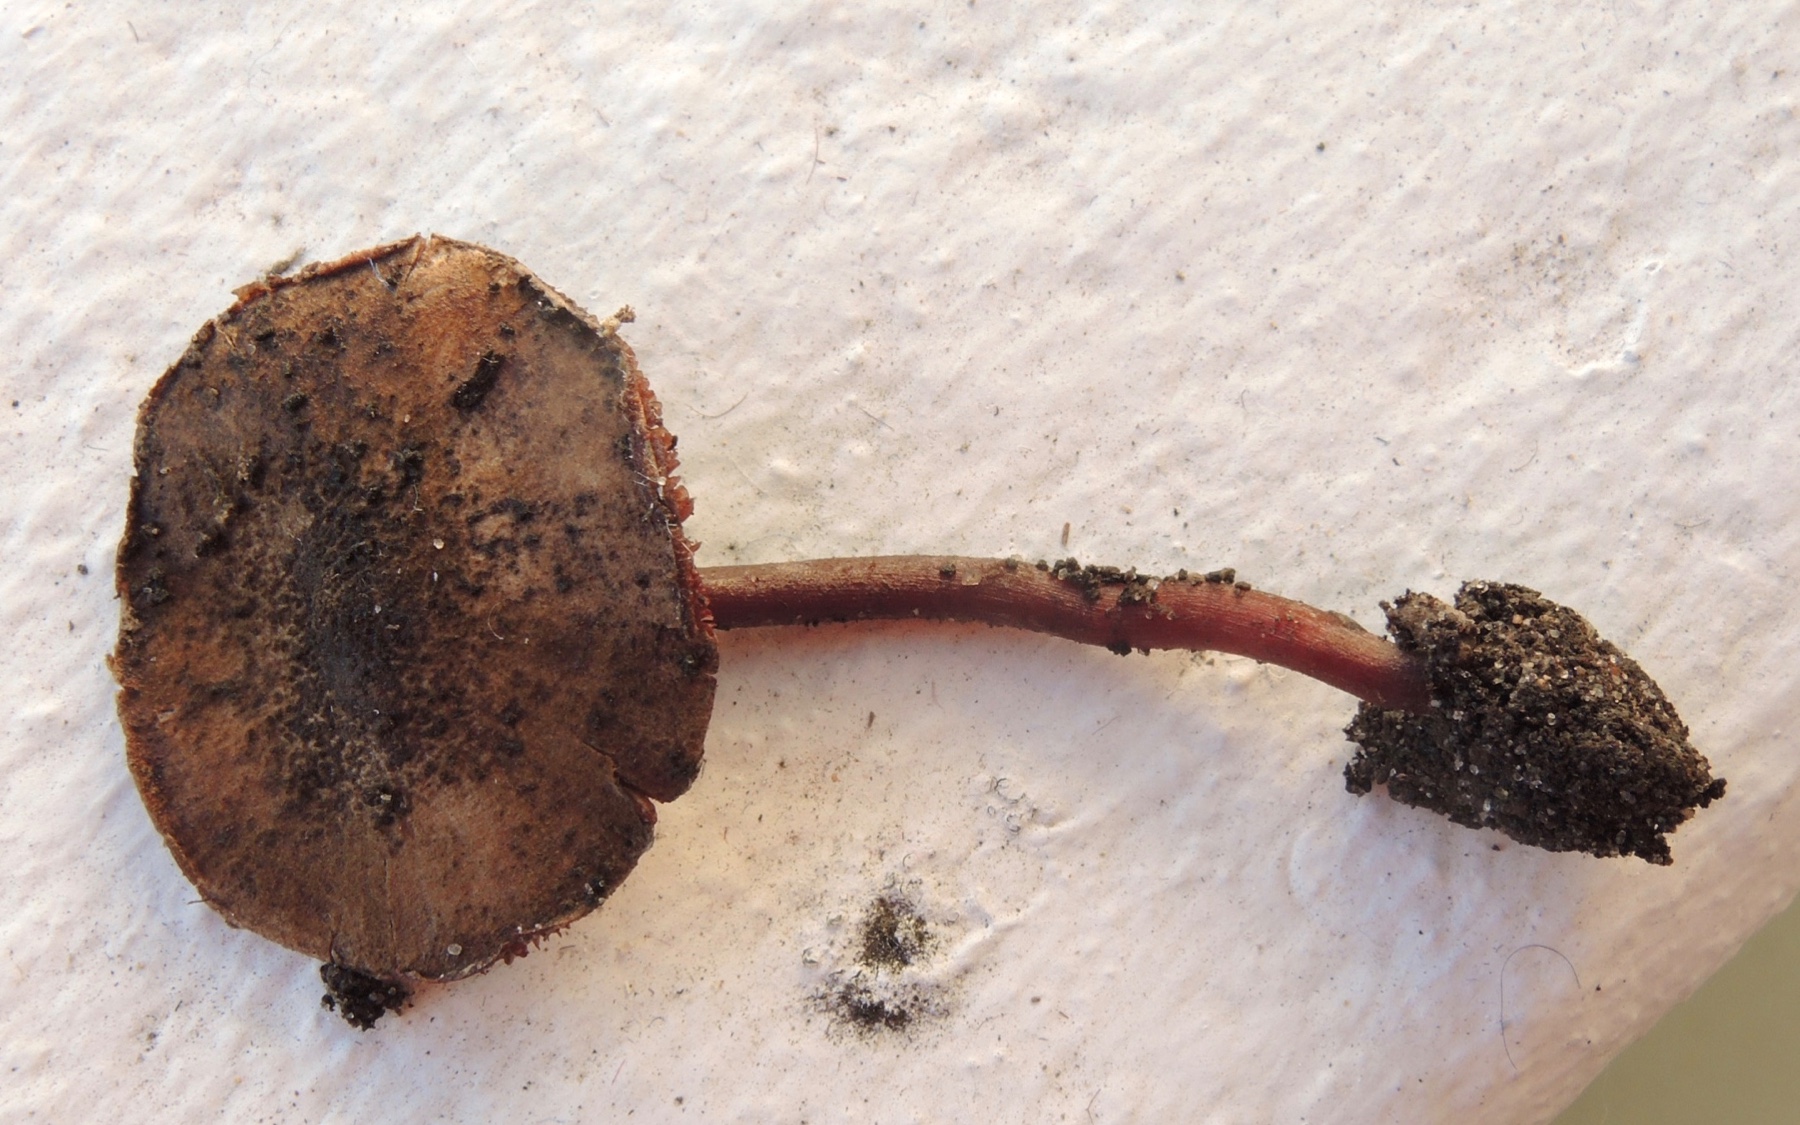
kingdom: Fungi
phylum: Basidiomycota
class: Agaricomycetes
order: Agaricales
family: Agaricaceae
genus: Melanophyllum
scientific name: Melanophyllum haematospermum
